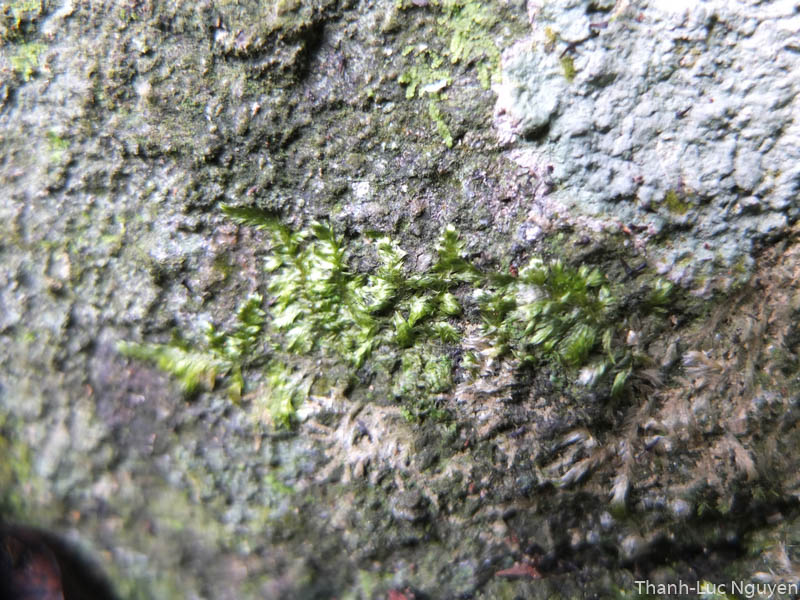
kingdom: Plantae
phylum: Bryophyta
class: Bryopsida
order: Hypnales
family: Pylaisiadelphaceae
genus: Brotherella
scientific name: Brotherella
